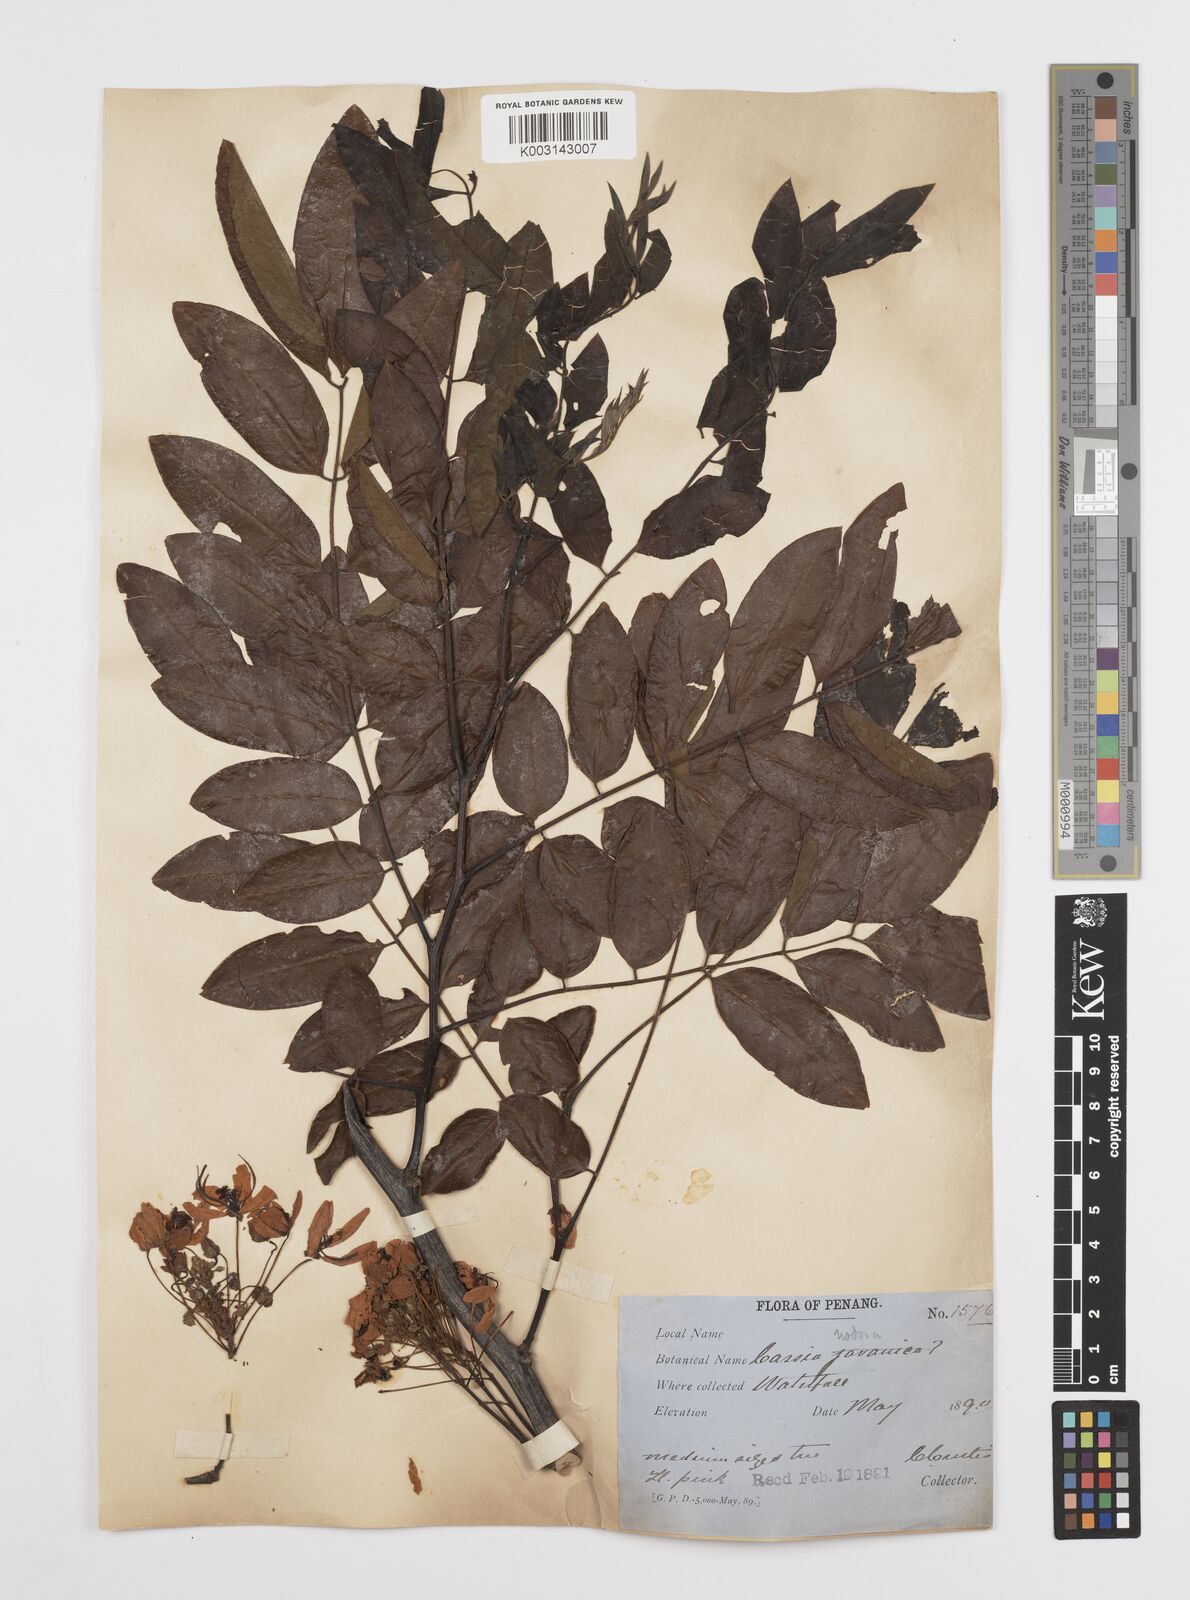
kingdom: Plantae
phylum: Tracheophyta
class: Magnoliopsida
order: Fabales
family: Fabaceae
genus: Cassia
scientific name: Cassia javanica
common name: Apple blossom
